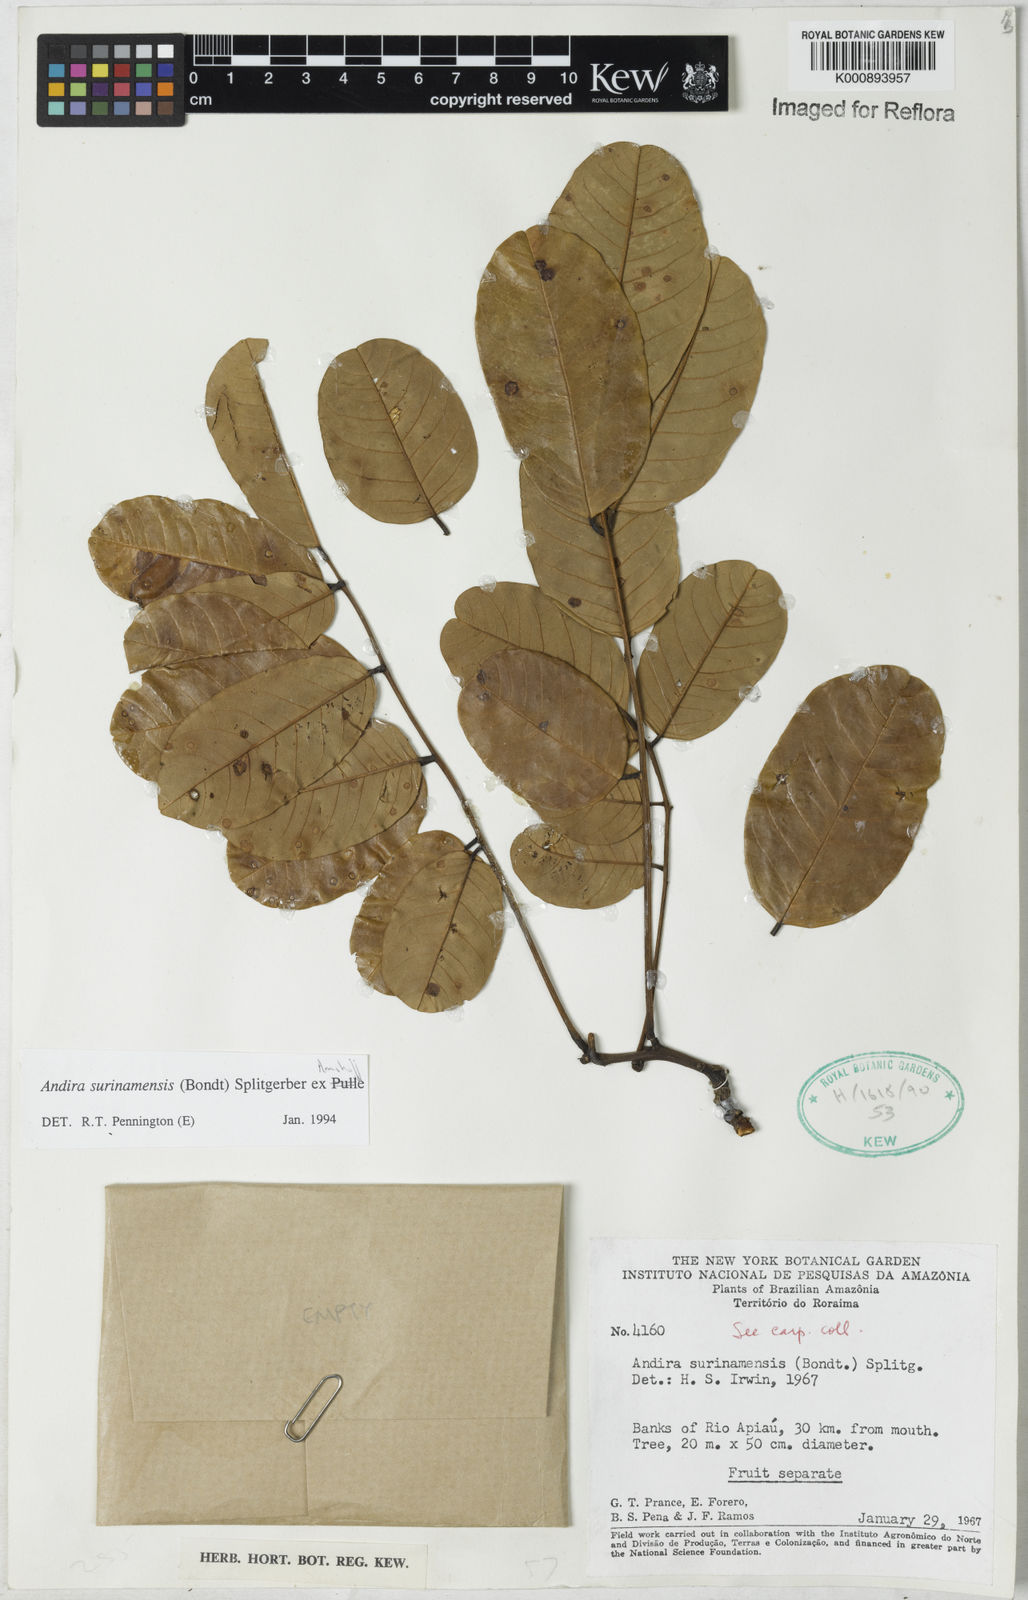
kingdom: Plantae
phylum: Tracheophyta
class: Magnoliopsida
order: Fabales
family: Fabaceae
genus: Andira
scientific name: Andira
